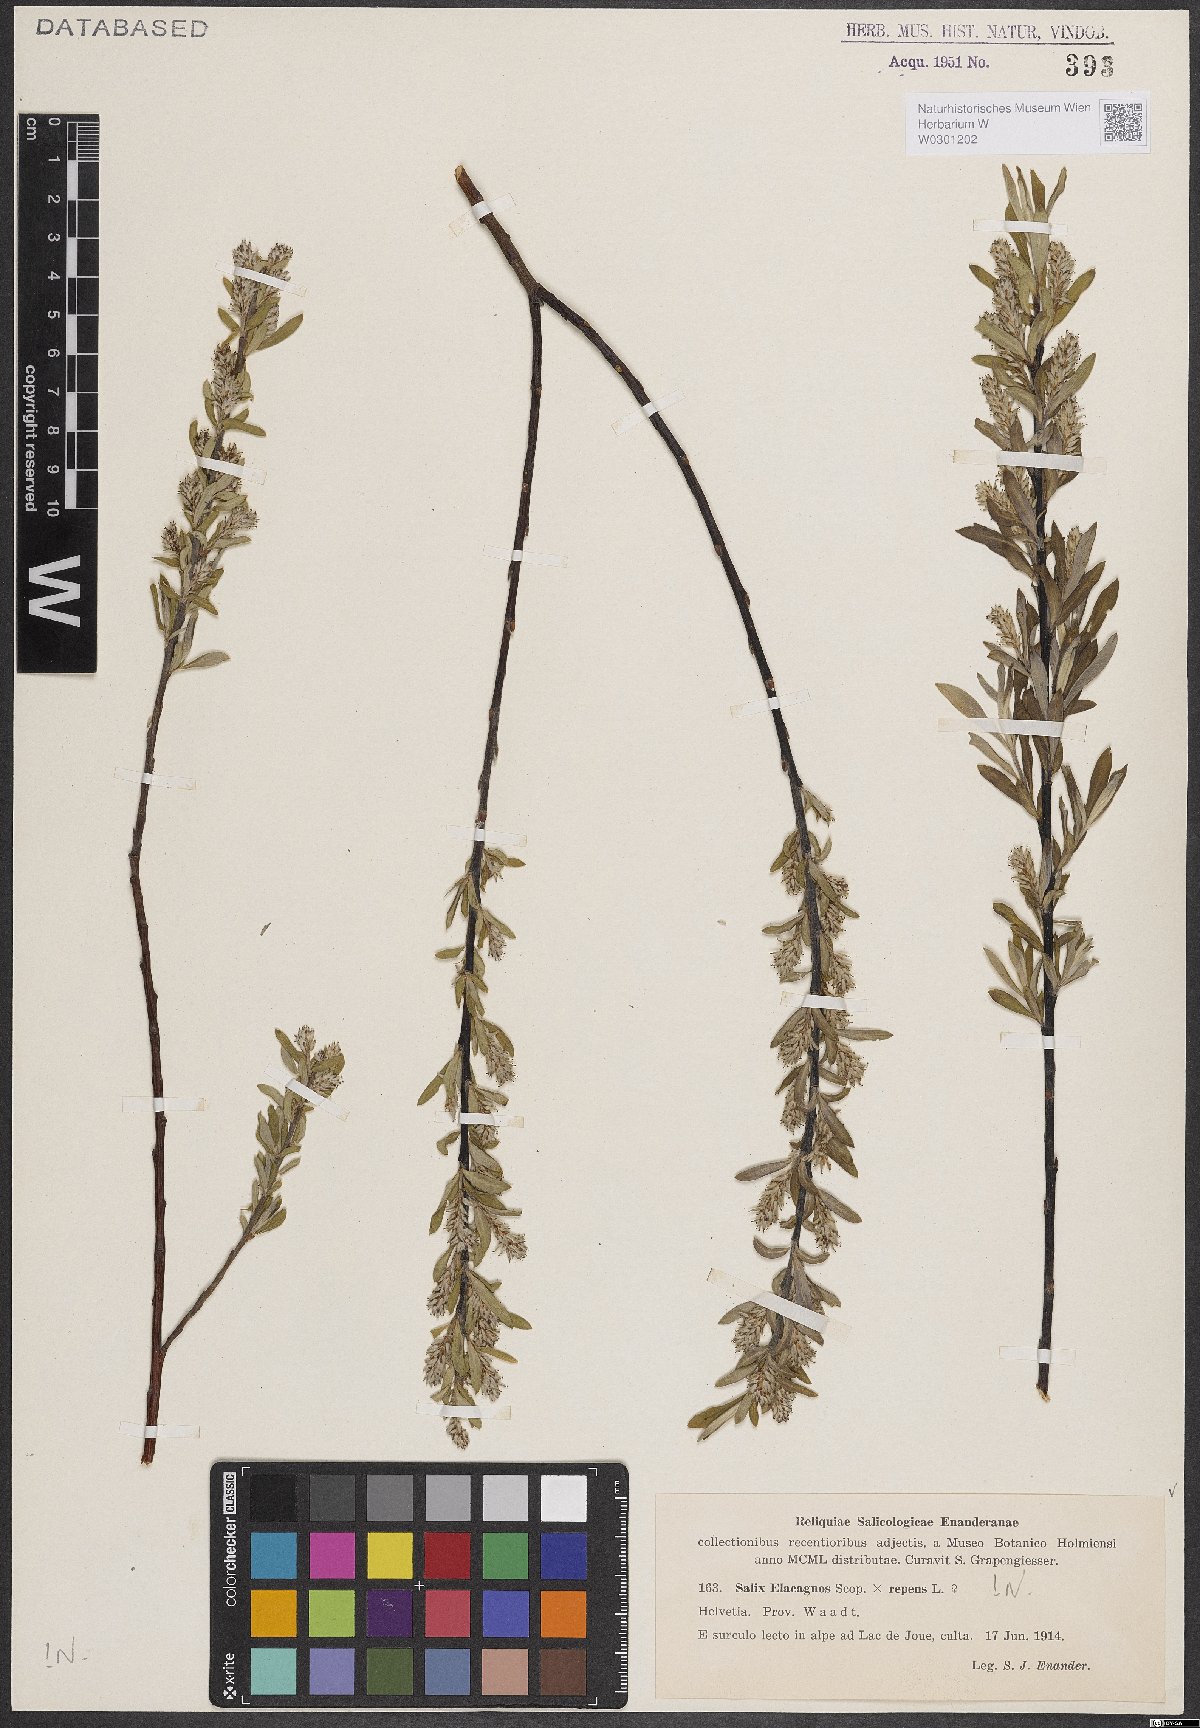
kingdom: Plantae
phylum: Tracheophyta
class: Magnoliopsida
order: Malpighiales
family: Salicaceae
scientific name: Salicaceae
